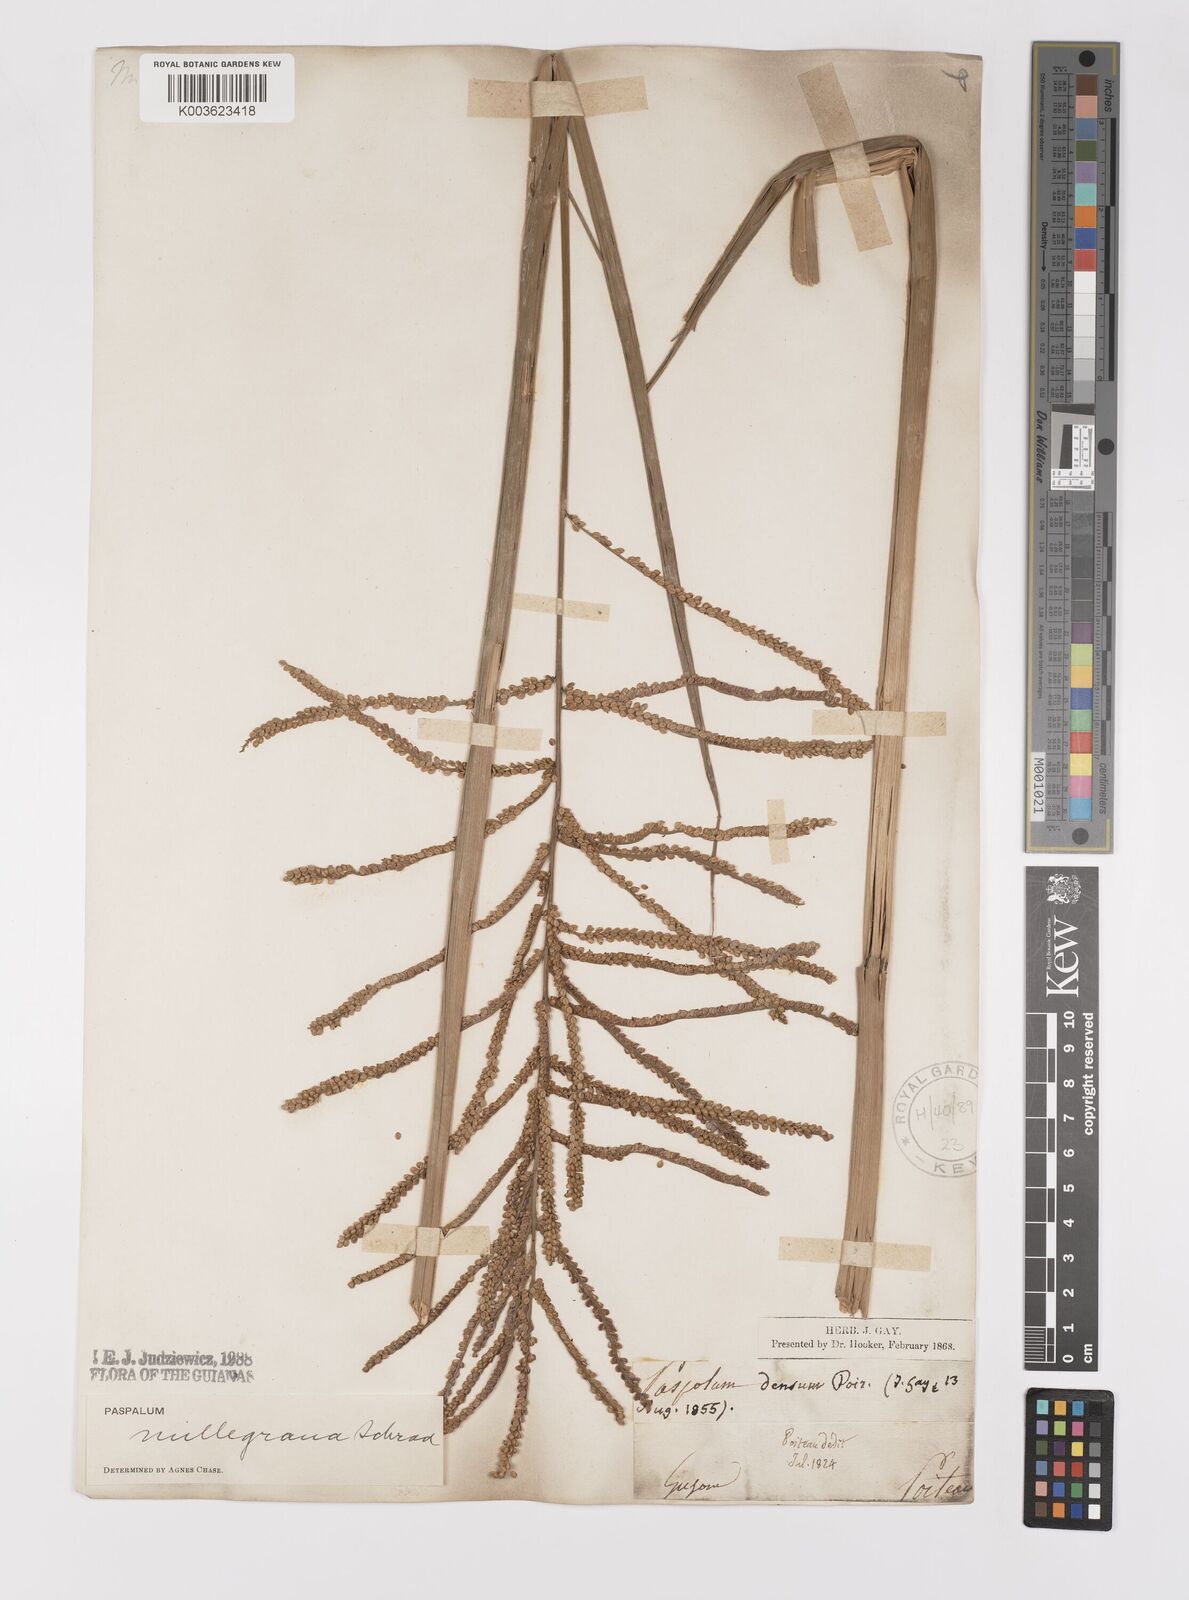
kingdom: Plantae
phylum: Tracheophyta
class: Liliopsida
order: Poales
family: Poaceae
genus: Paspalum
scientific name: Paspalum millegranum
